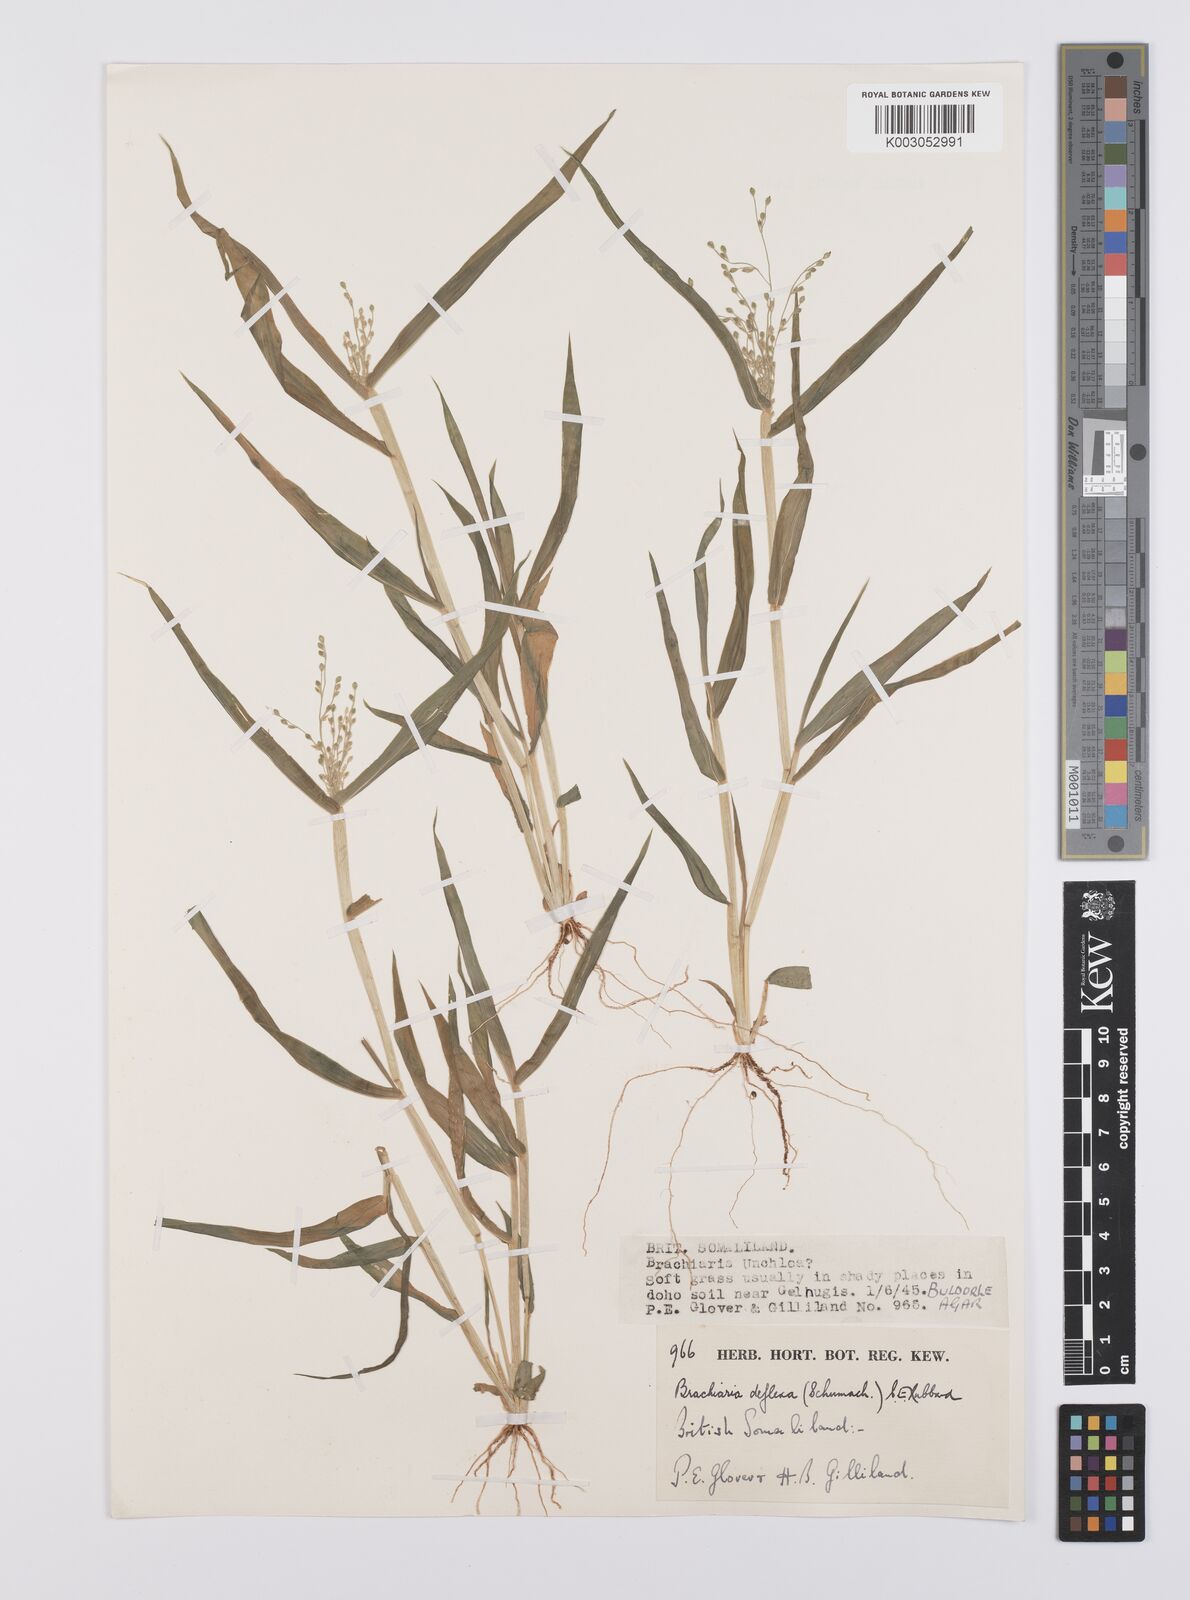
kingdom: Plantae
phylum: Tracheophyta
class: Liliopsida
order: Poales
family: Poaceae
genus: Urochloa
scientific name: Urochloa deflexa
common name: Guinea millet
